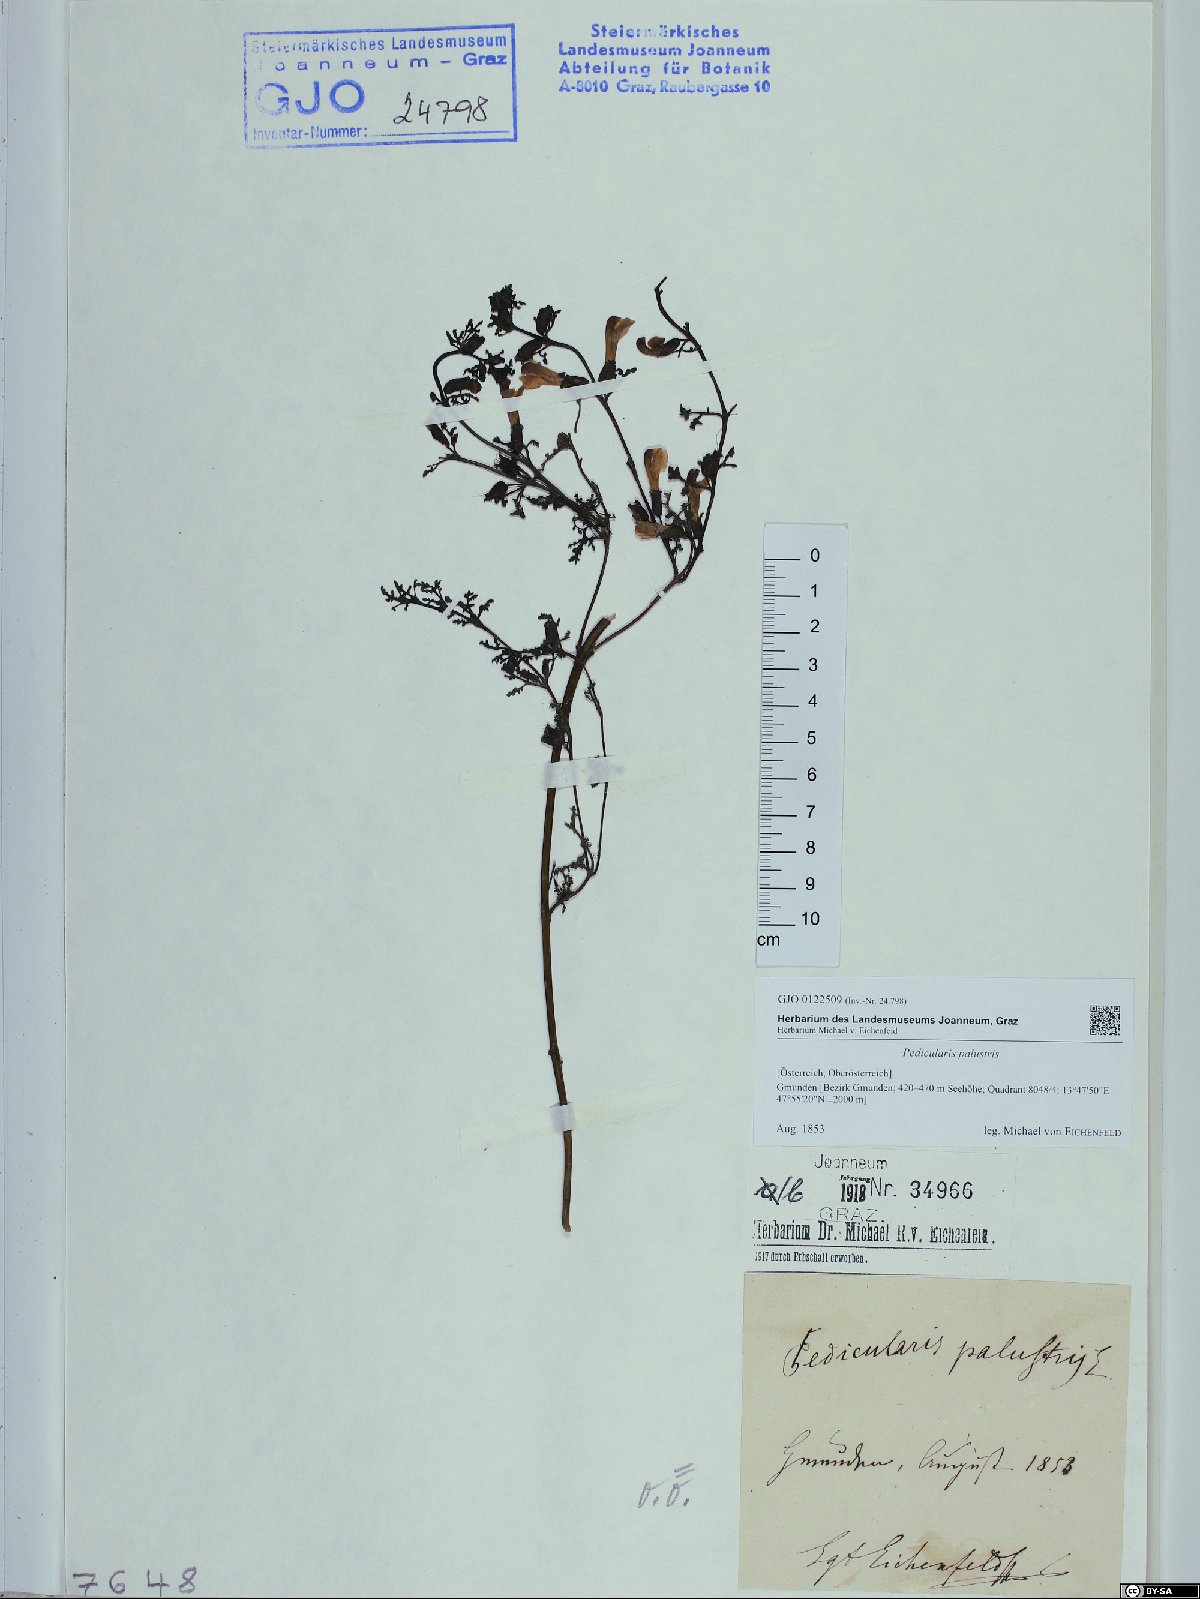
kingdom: Plantae
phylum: Tracheophyta
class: Magnoliopsida
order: Lamiales
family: Orobanchaceae
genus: Pedicularis
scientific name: Pedicularis palustris
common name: Marsh lousewort
